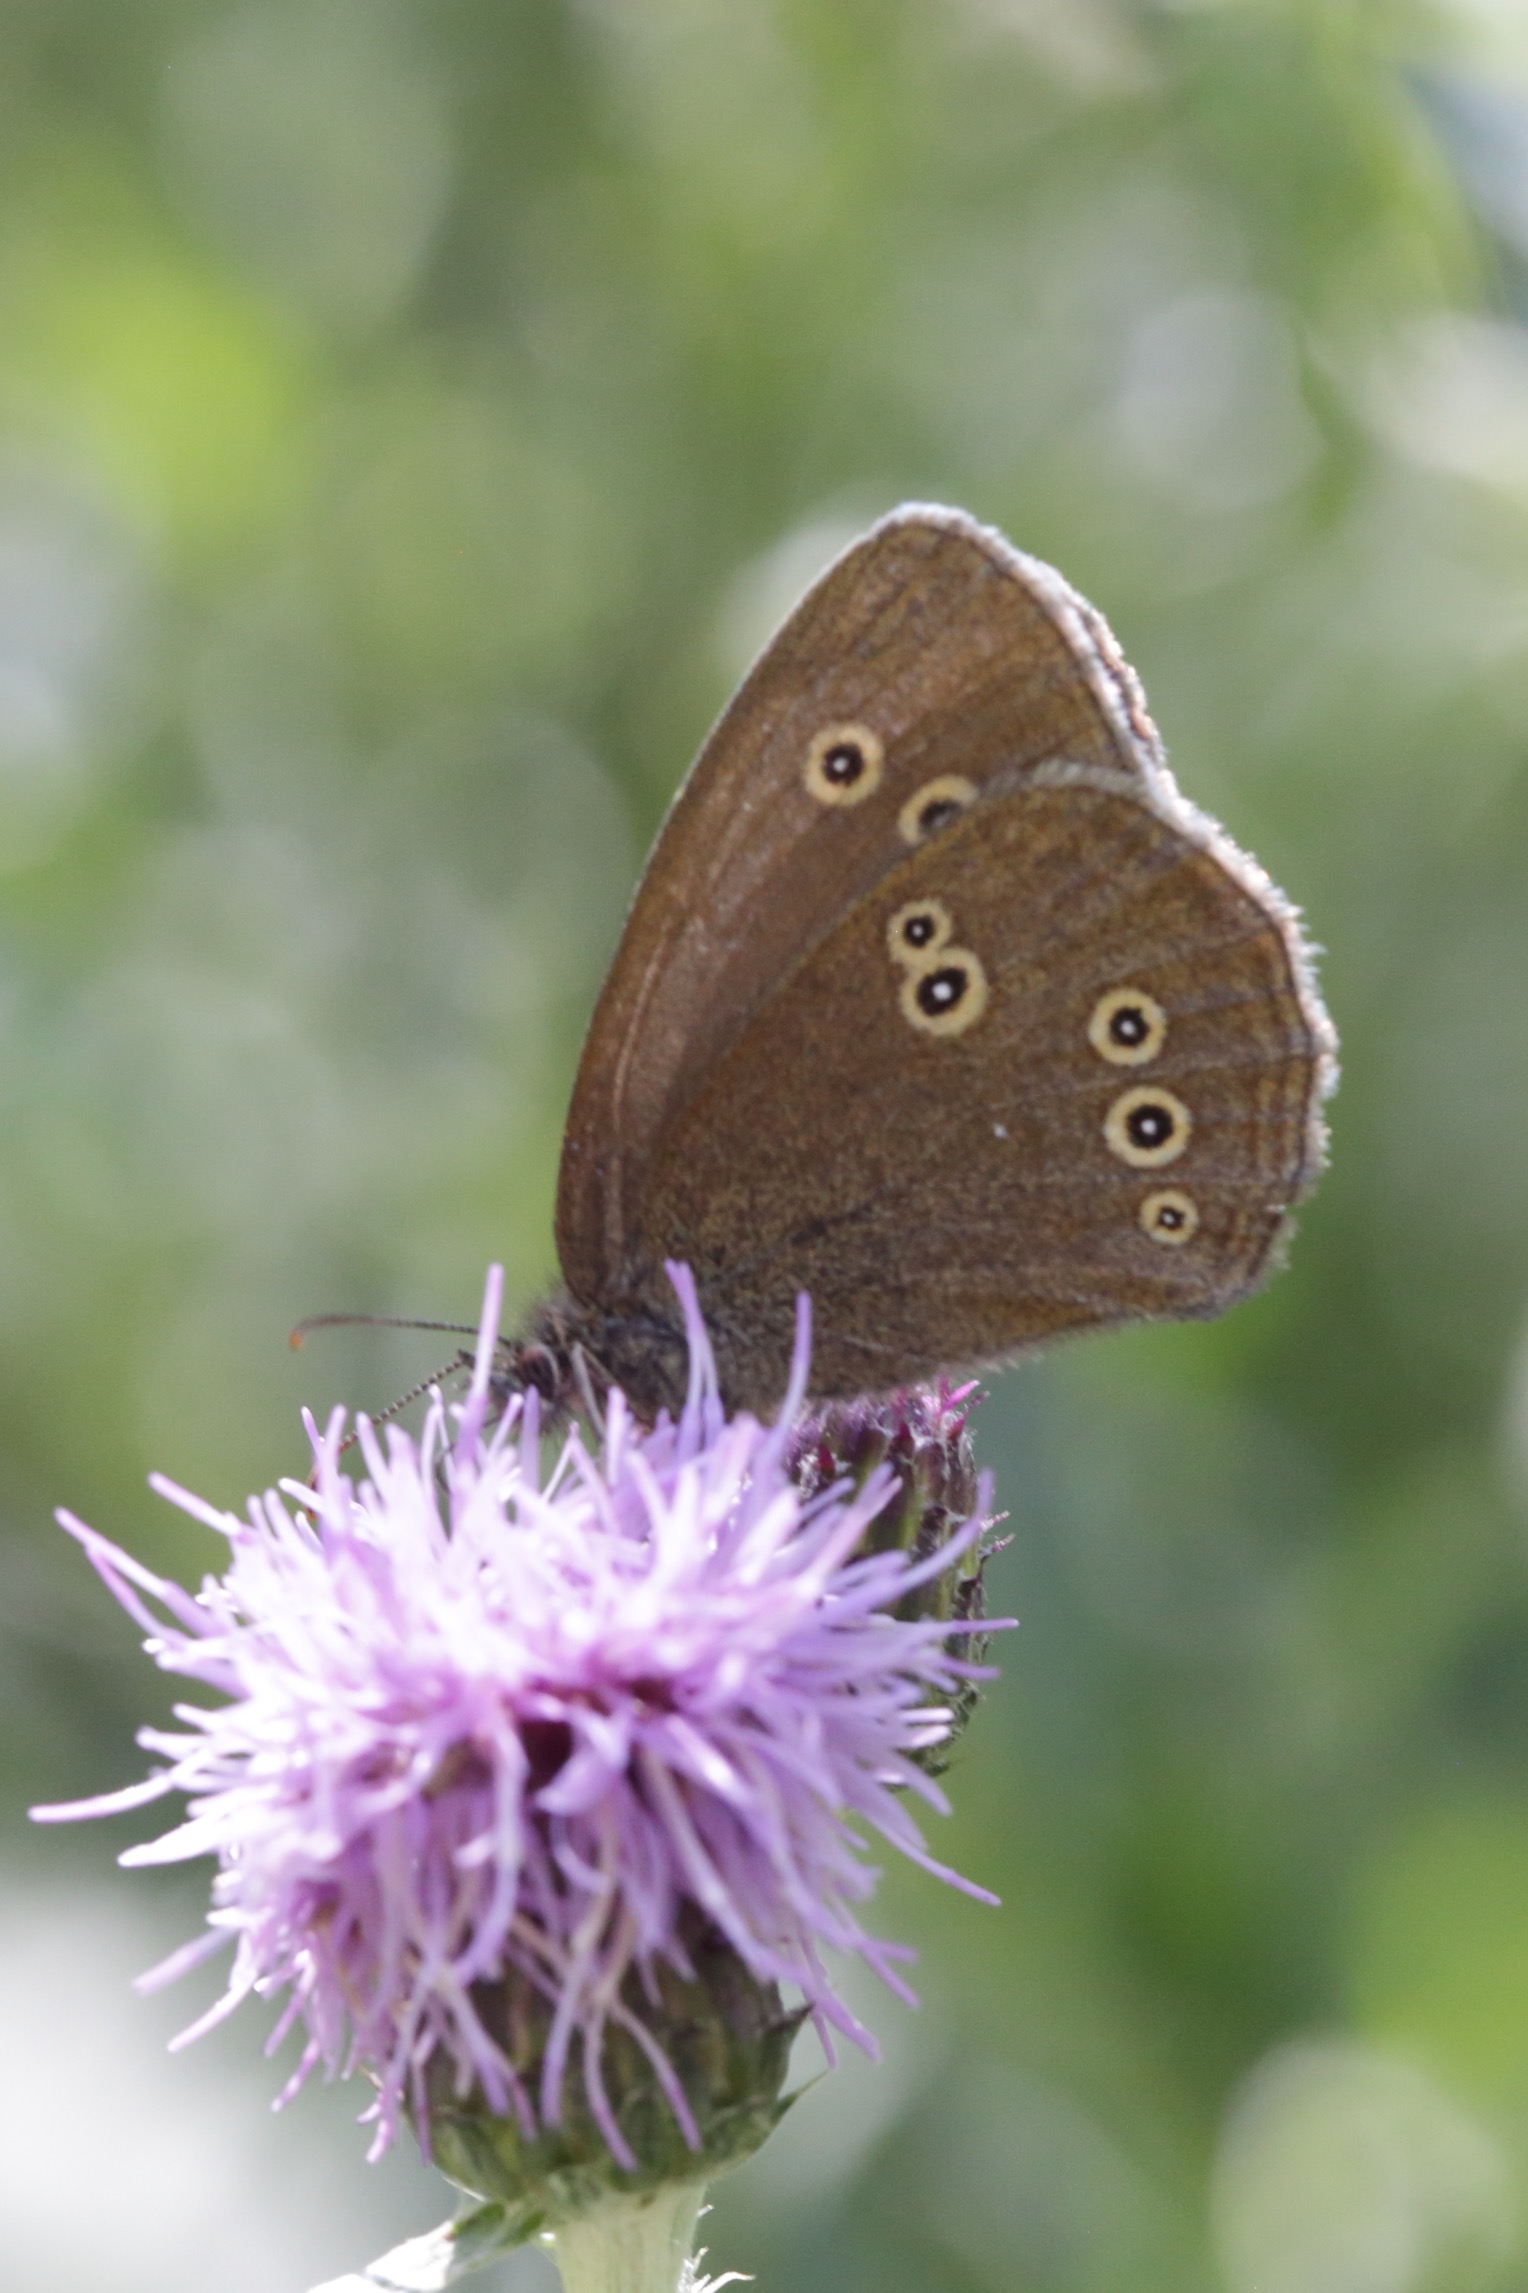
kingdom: Animalia
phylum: Arthropoda
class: Insecta
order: Lepidoptera
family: Nymphalidae
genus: Aphantopus
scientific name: Aphantopus hyperantus
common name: Engrandøje
